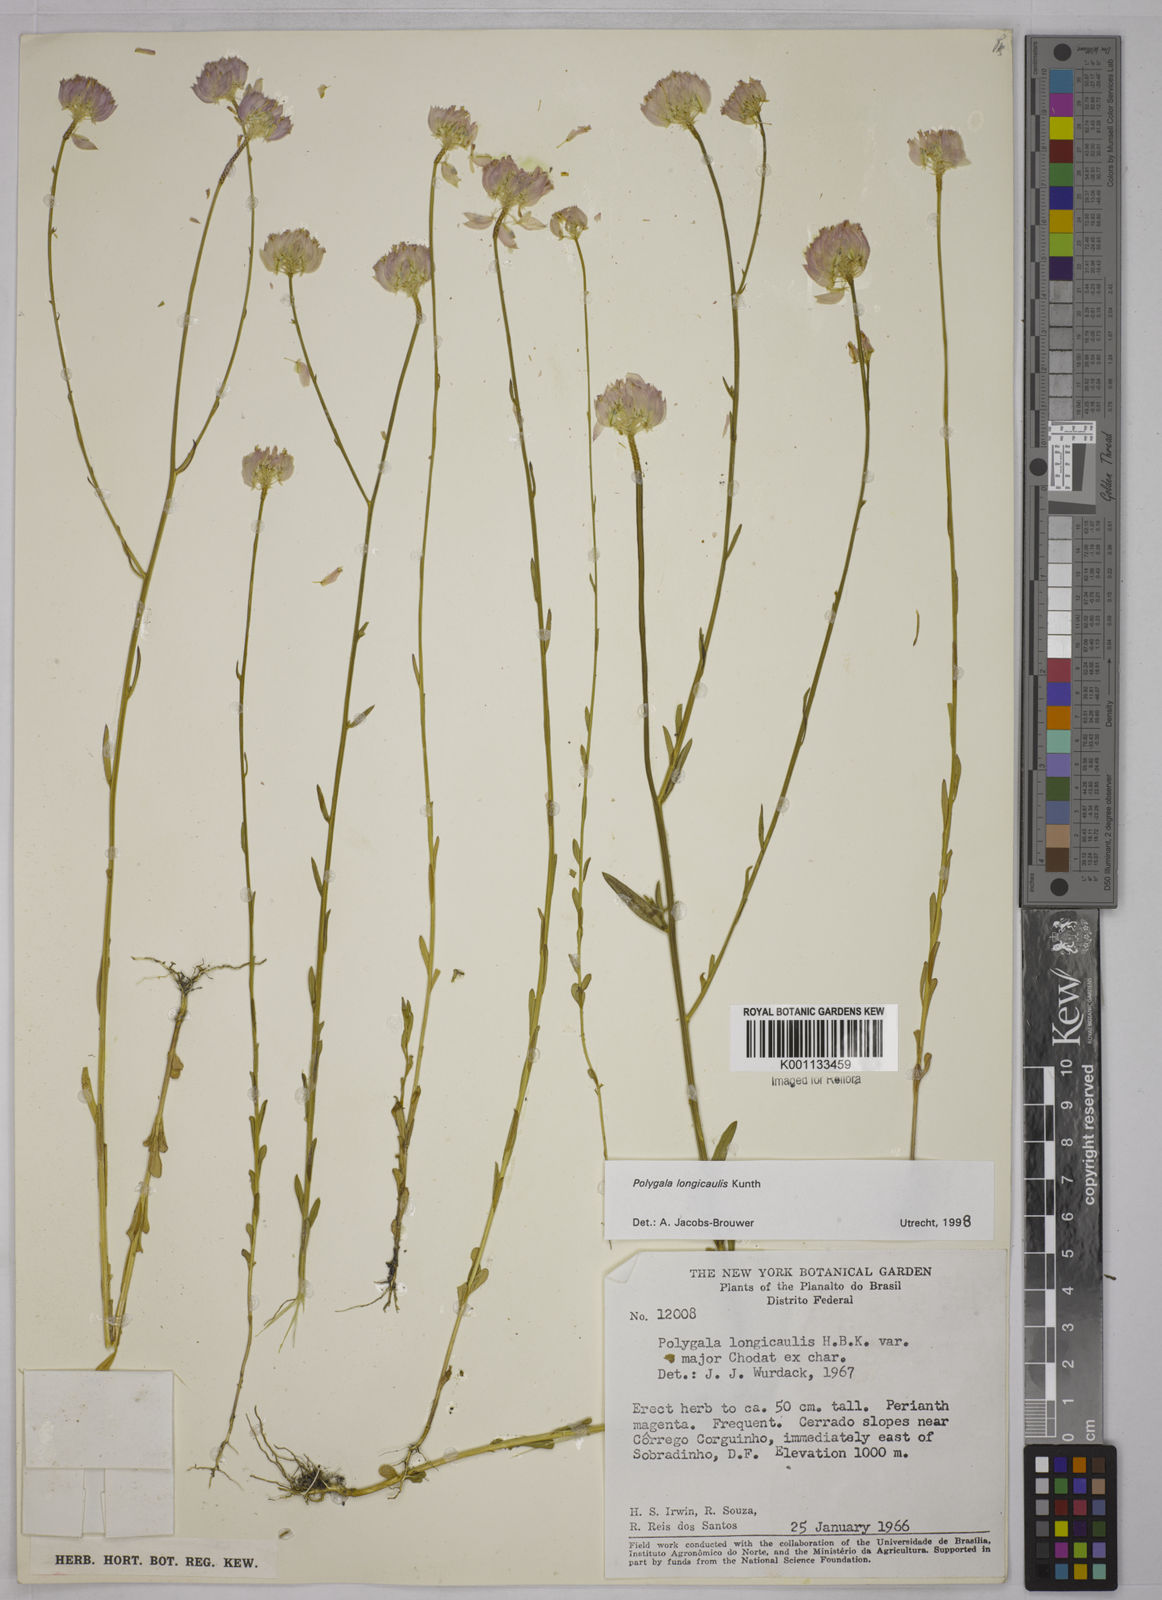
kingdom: Plantae
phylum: Tracheophyta
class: Magnoliopsida
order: Fabales
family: Polygalaceae
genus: Polygala
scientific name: Polygala longicaulis
